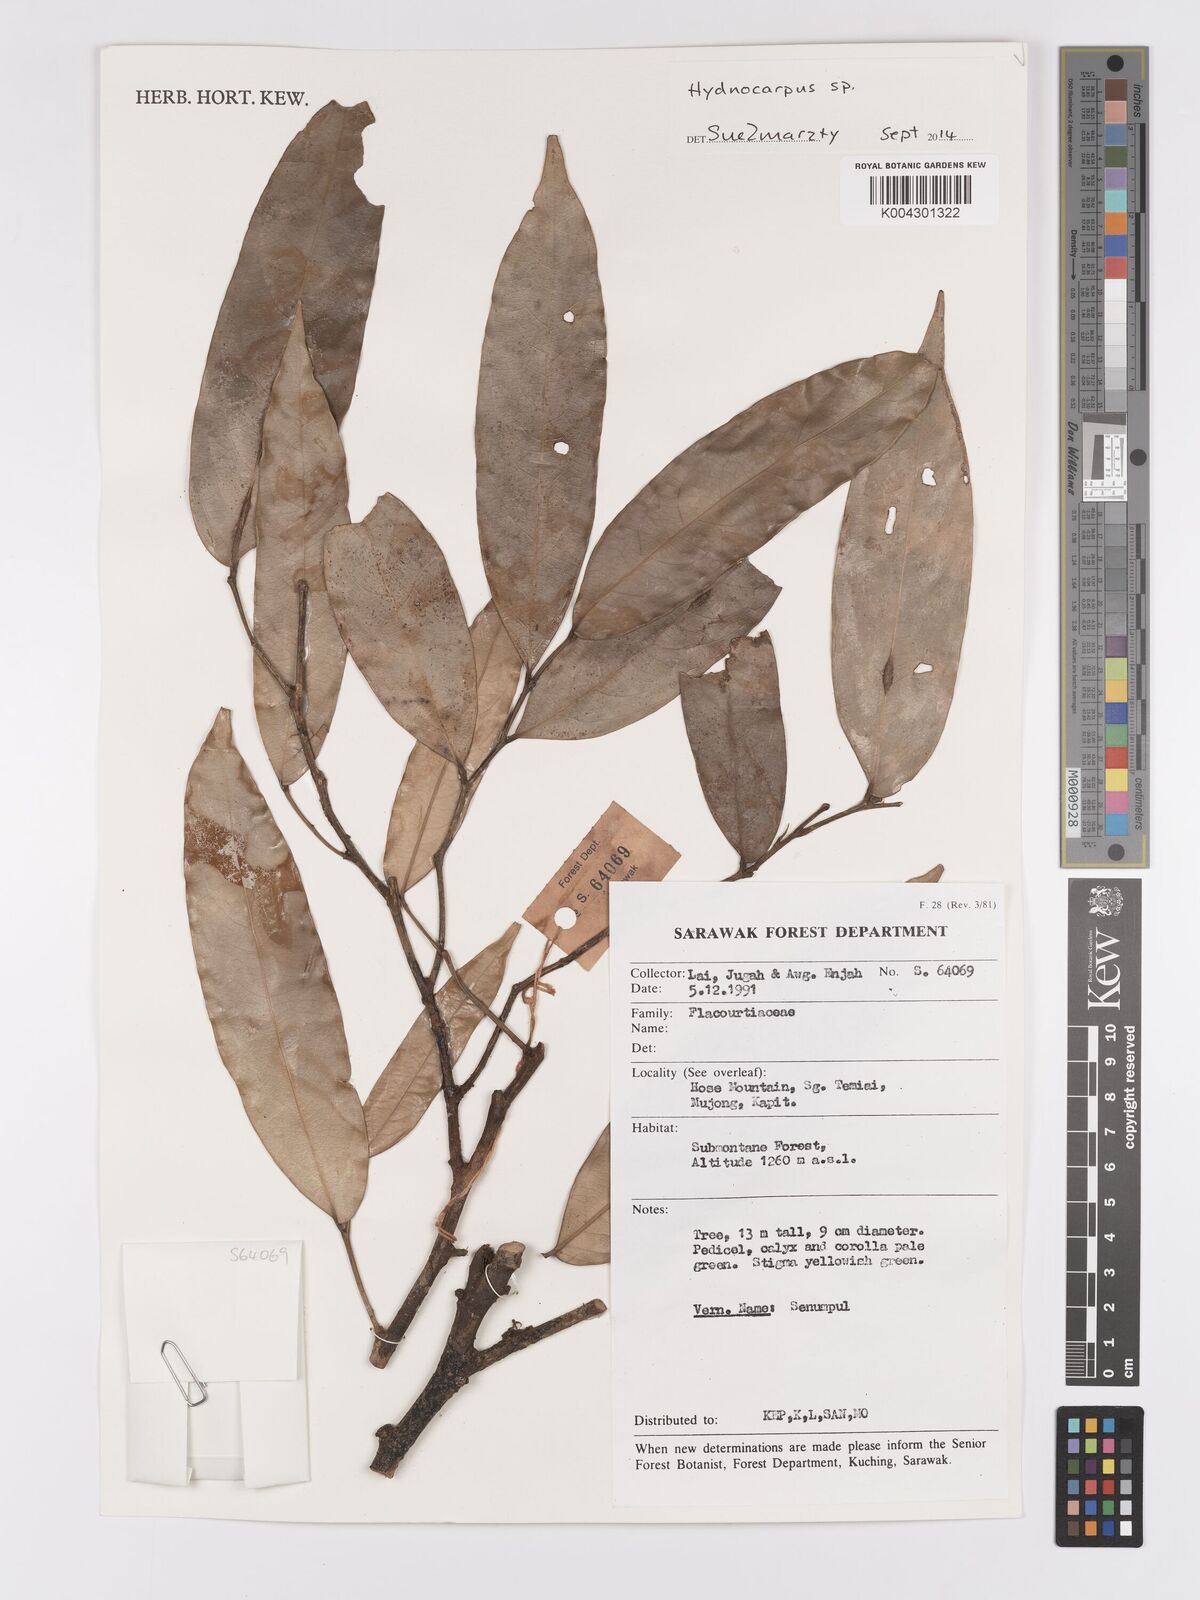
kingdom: Plantae
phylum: Tracheophyta
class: Magnoliopsida
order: Malpighiales
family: Achariaceae
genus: Hydnocarpus
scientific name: Hydnocarpus
